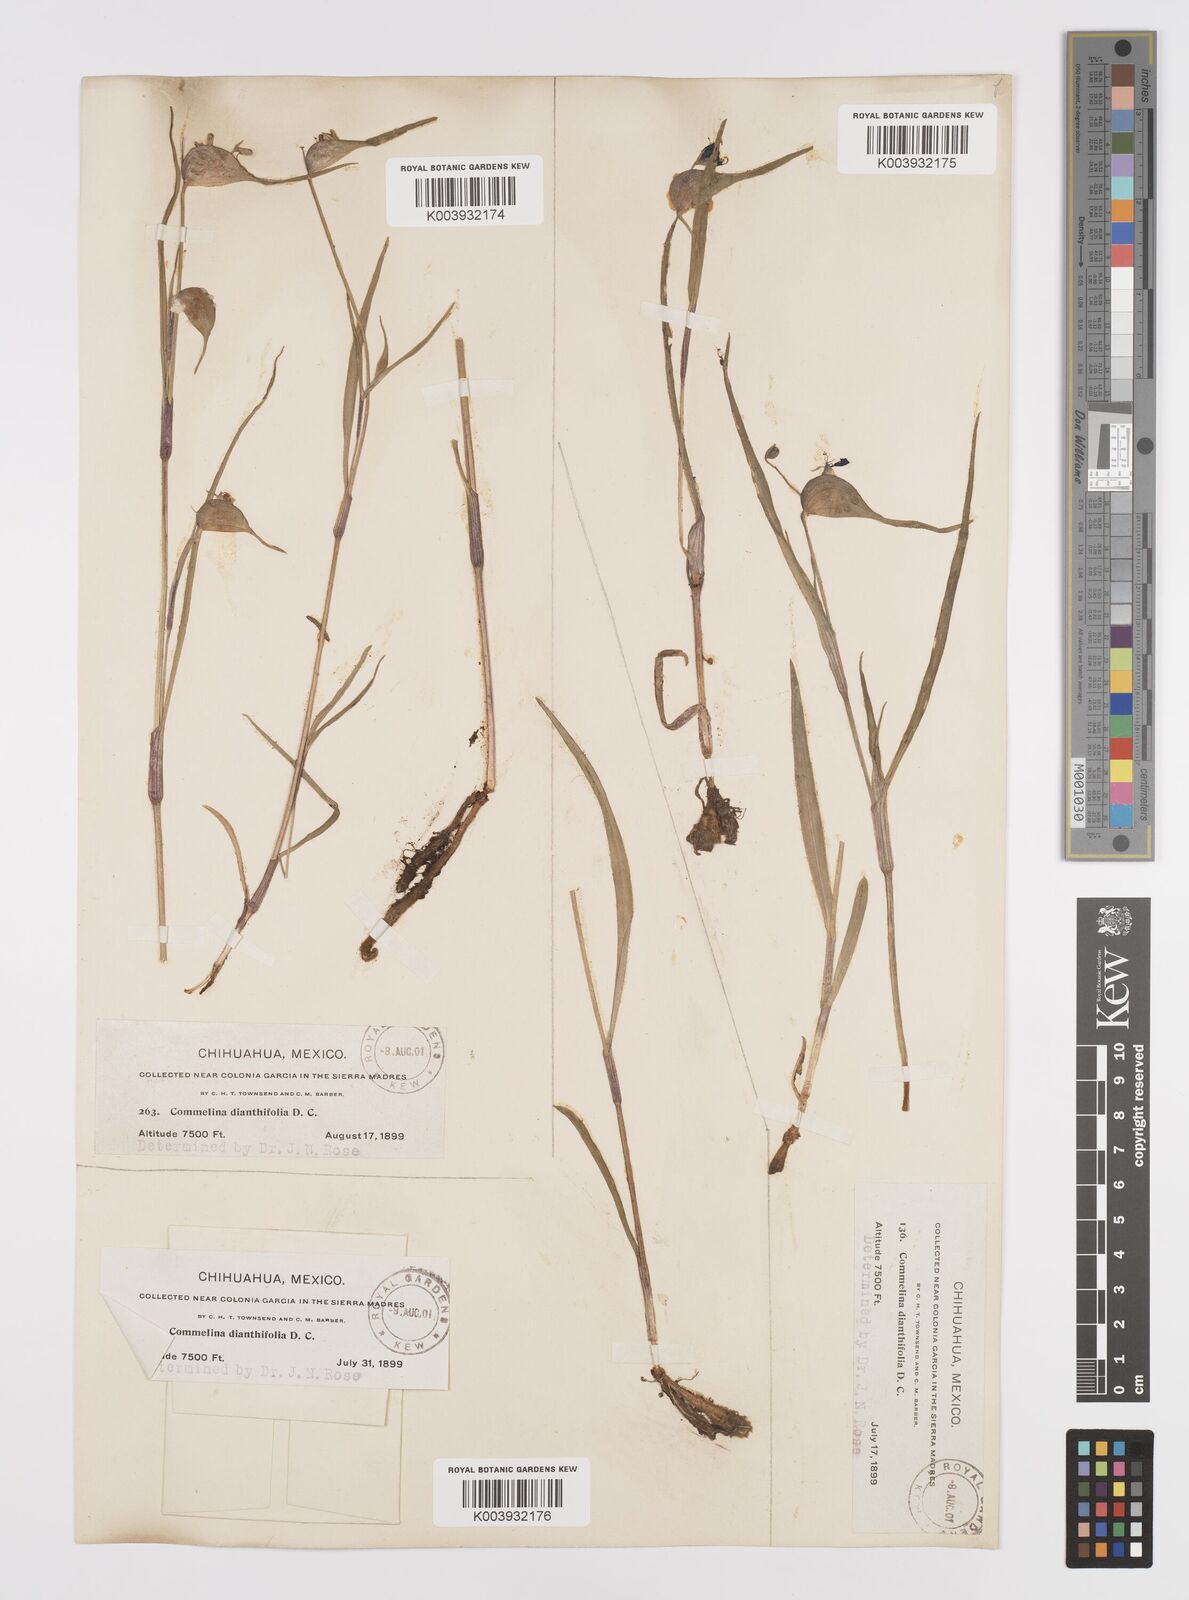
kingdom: Plantae
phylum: Tracheophyta
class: Liliopsida
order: Commelinales
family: Commelinaceae
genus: Commelina
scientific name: Commelina dianthifolia
